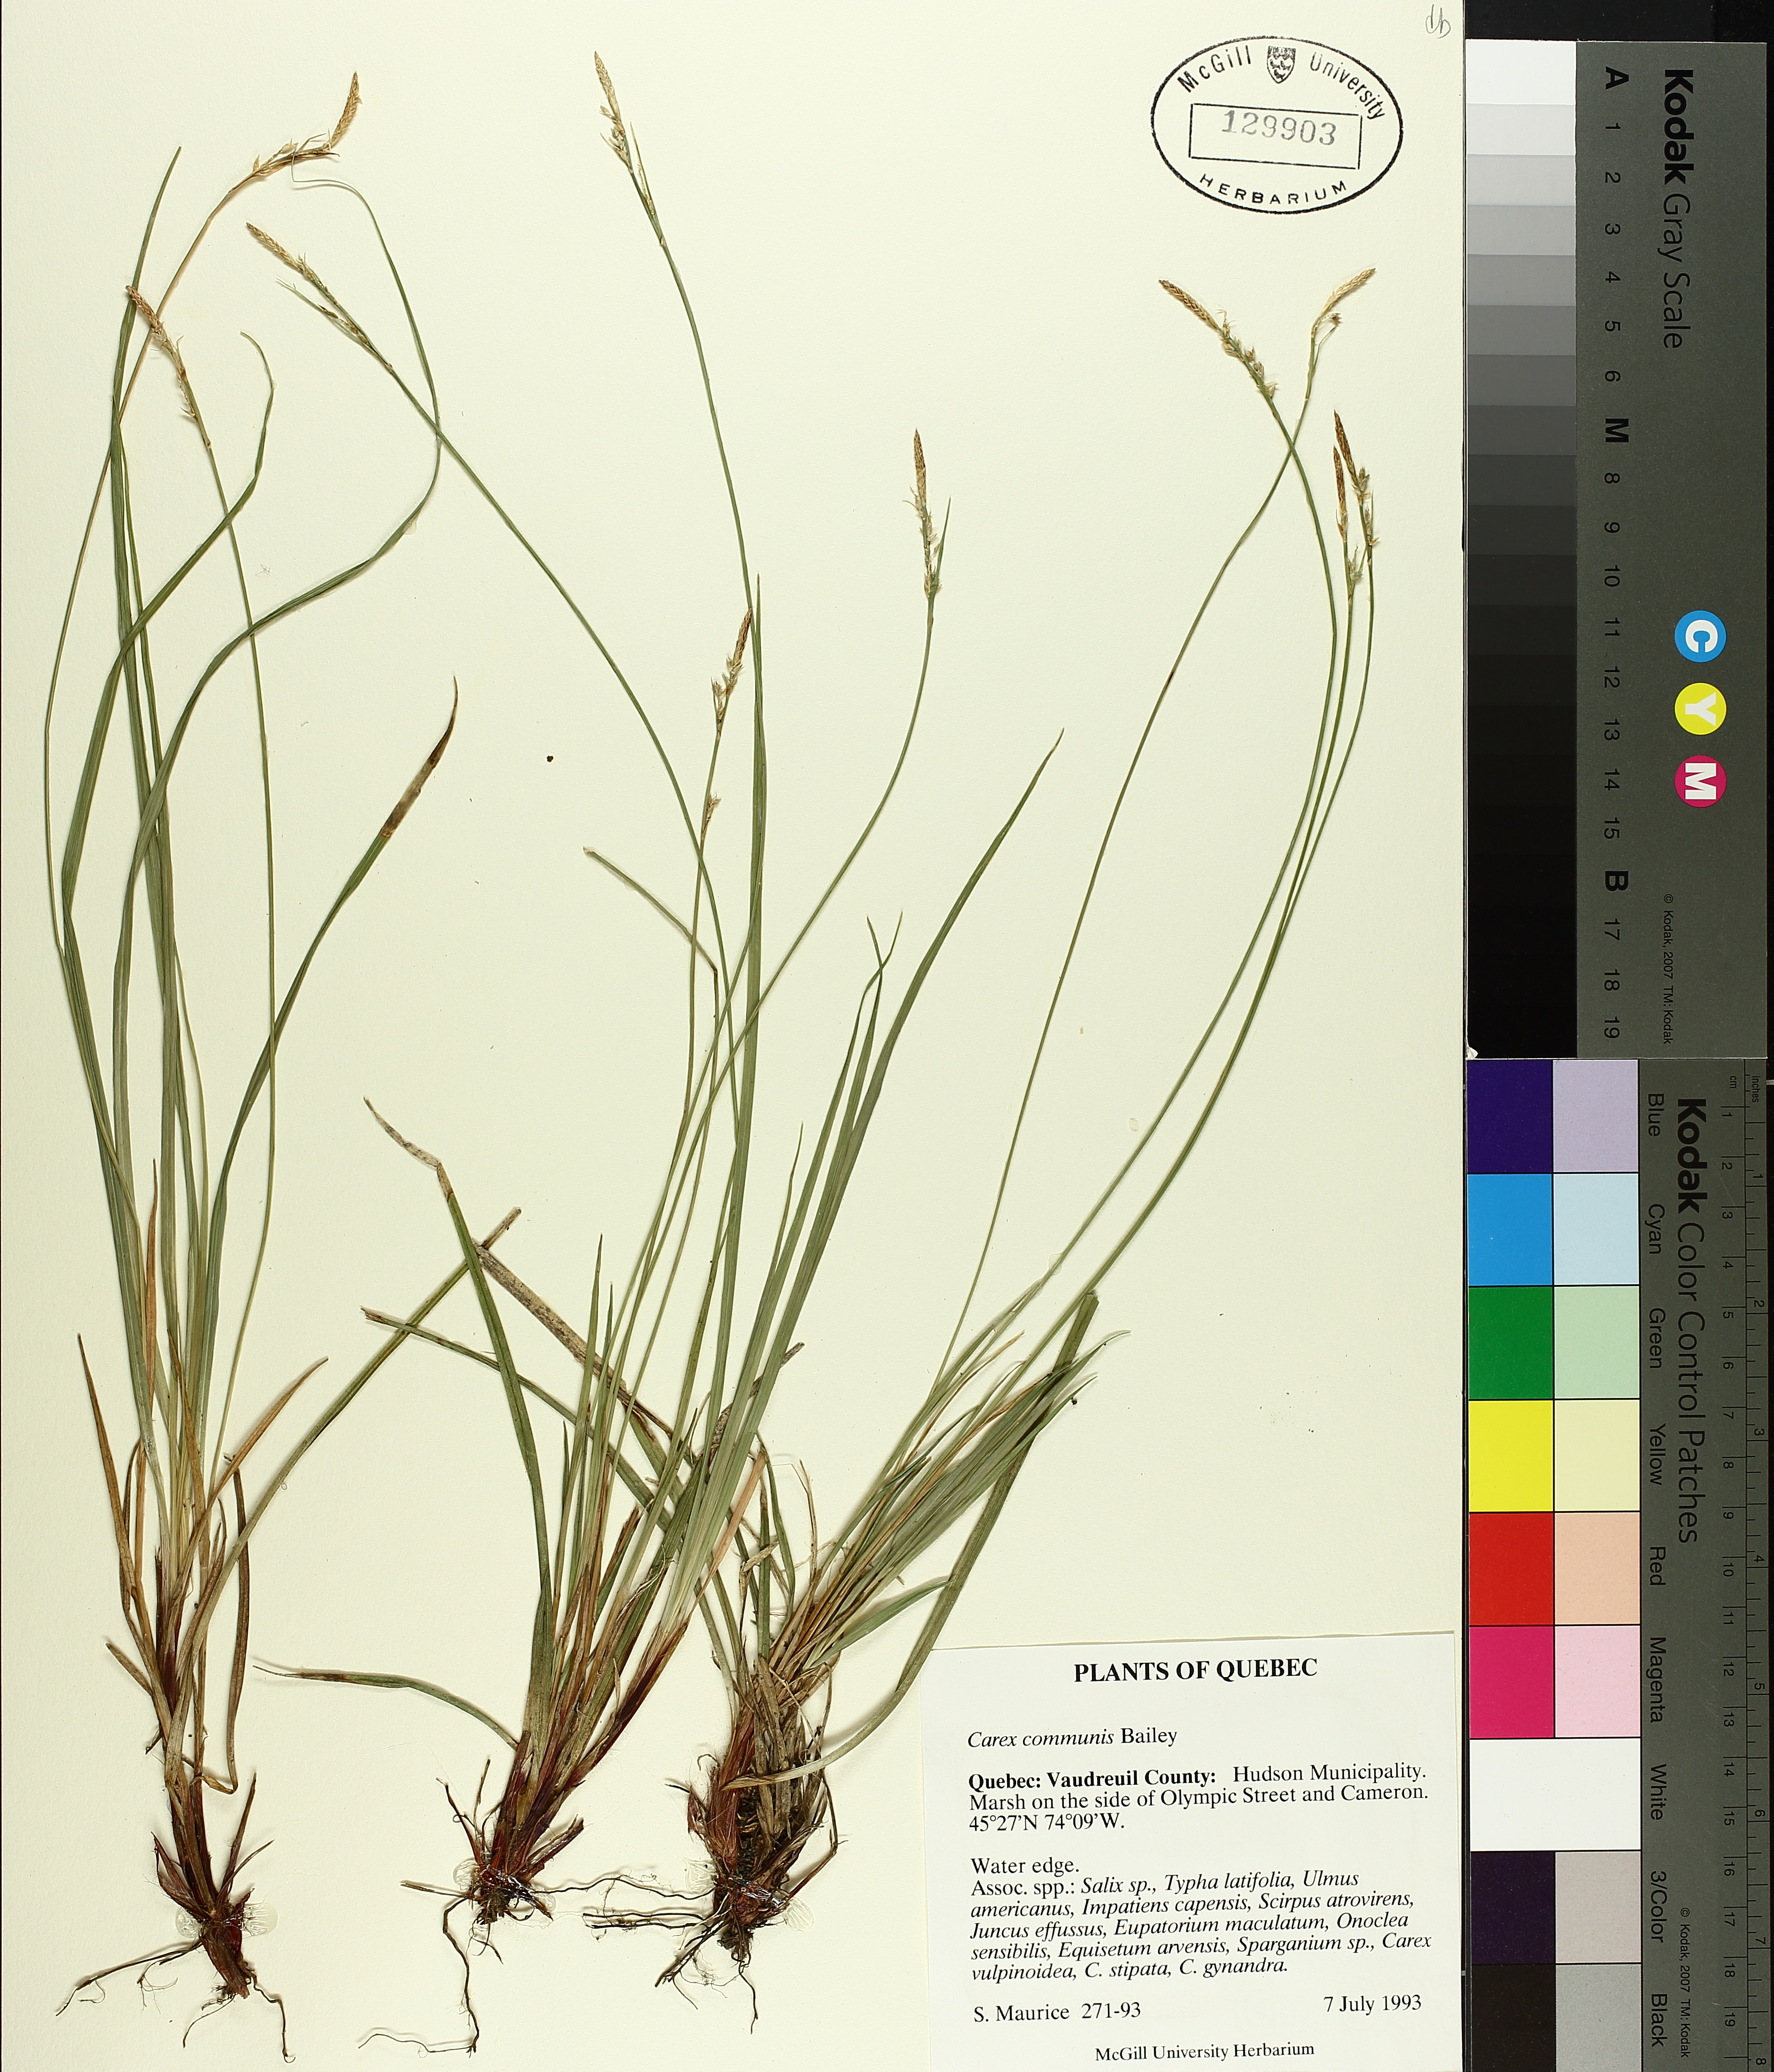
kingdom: Plantae
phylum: Tracheophyta
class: Liliopsida
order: Poales
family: Cyperaceae
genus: Carex
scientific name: Carex communis
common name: Colonial oak sedge
